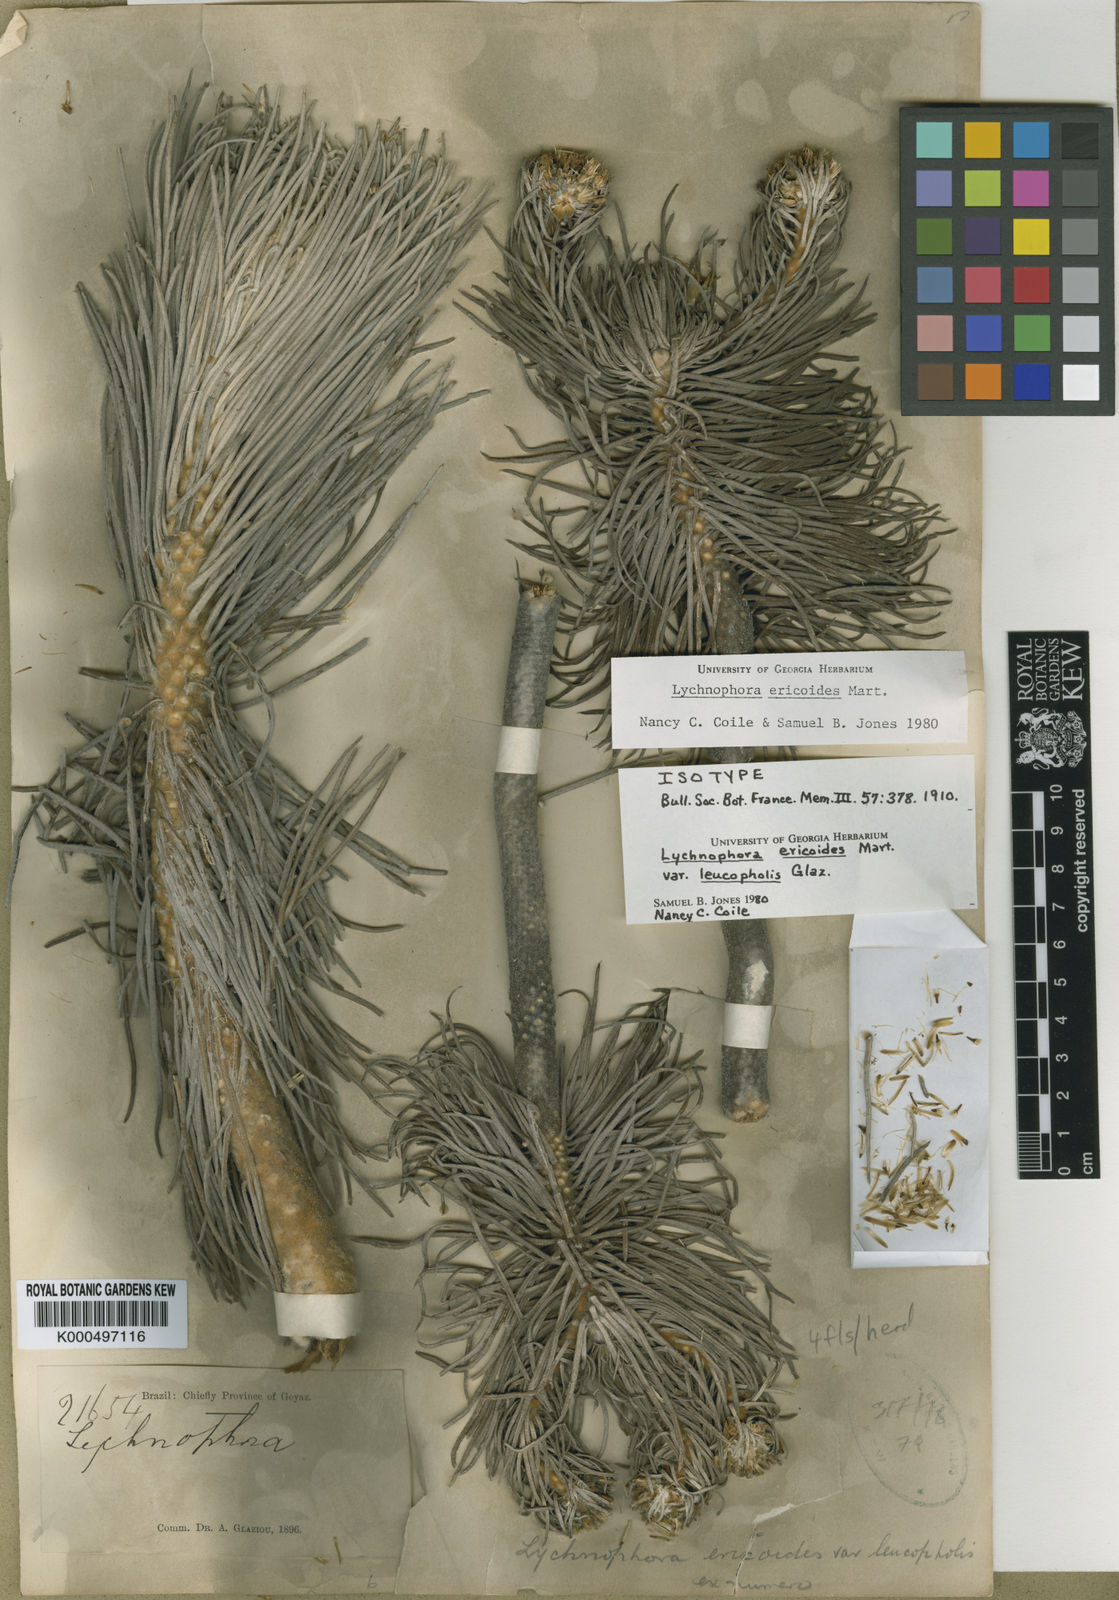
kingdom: Plantae
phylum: Tracheophyta
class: Magnoliopsida
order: Asterales
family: Asteraceae
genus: Lychnophora
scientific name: Lychnophora
